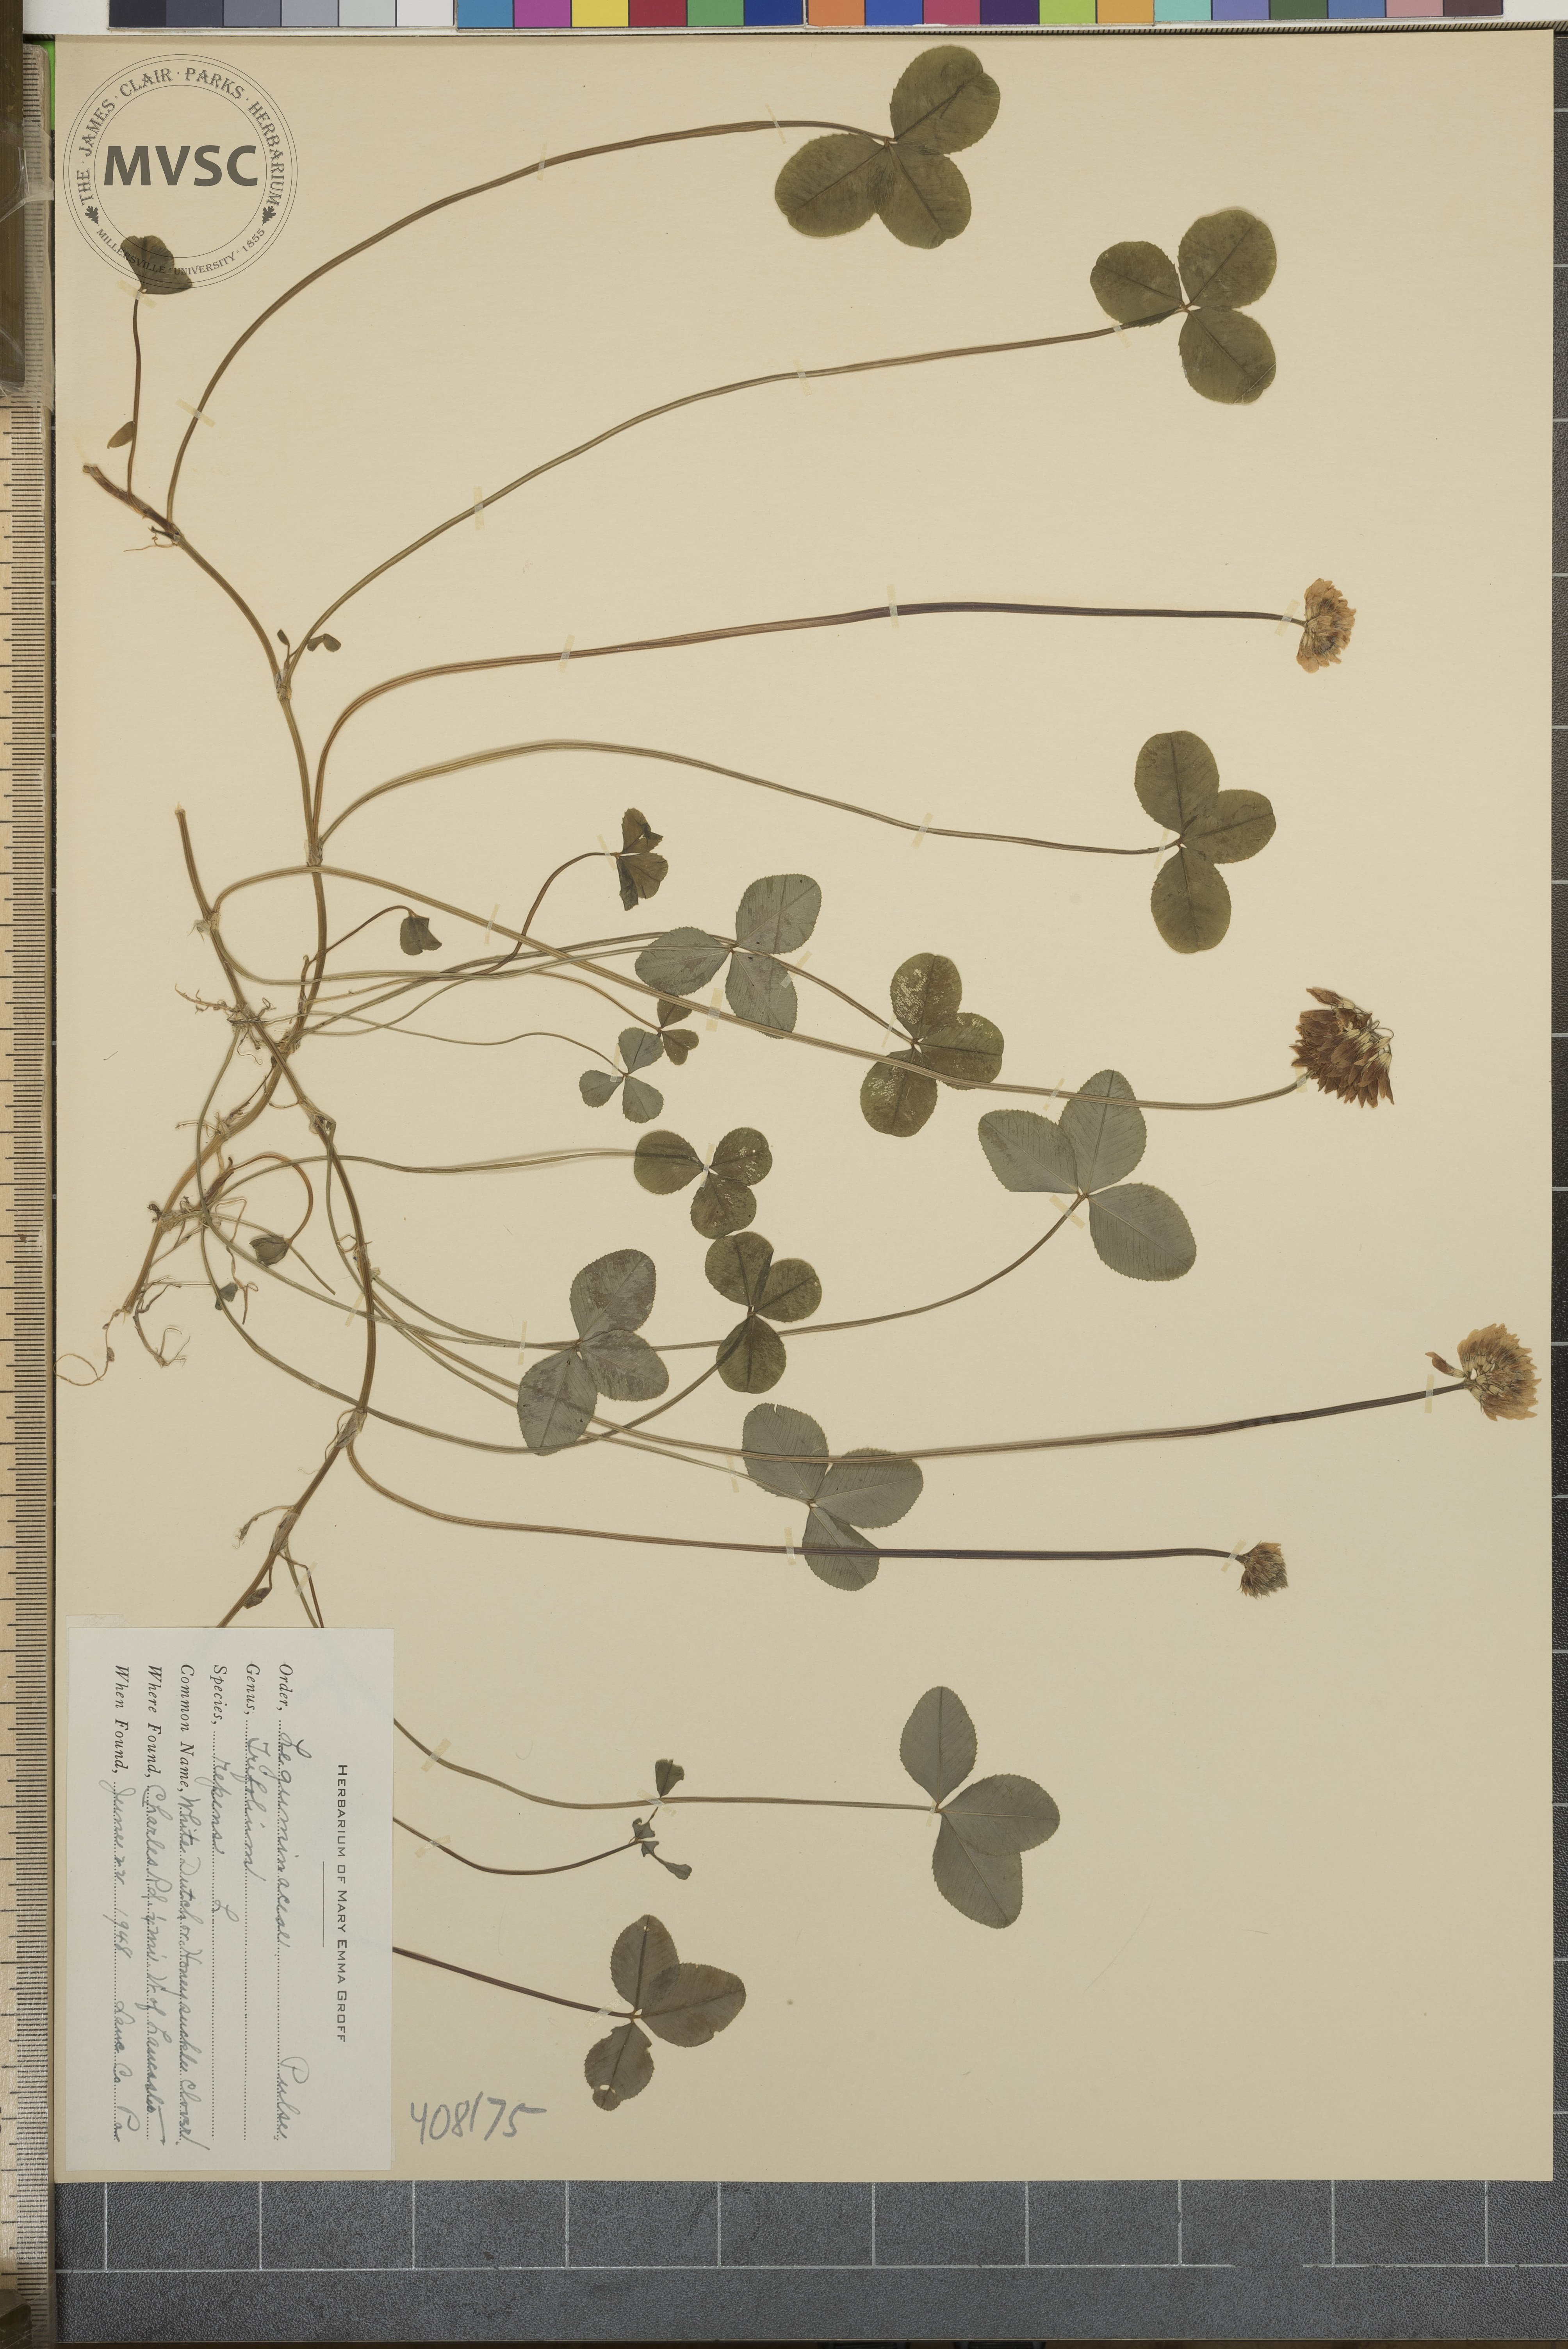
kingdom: Plantae
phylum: Tracheophyta
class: Magnoliopsida
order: Fabales
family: Fabaceae
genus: Trifolium
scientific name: Trifolium repens
